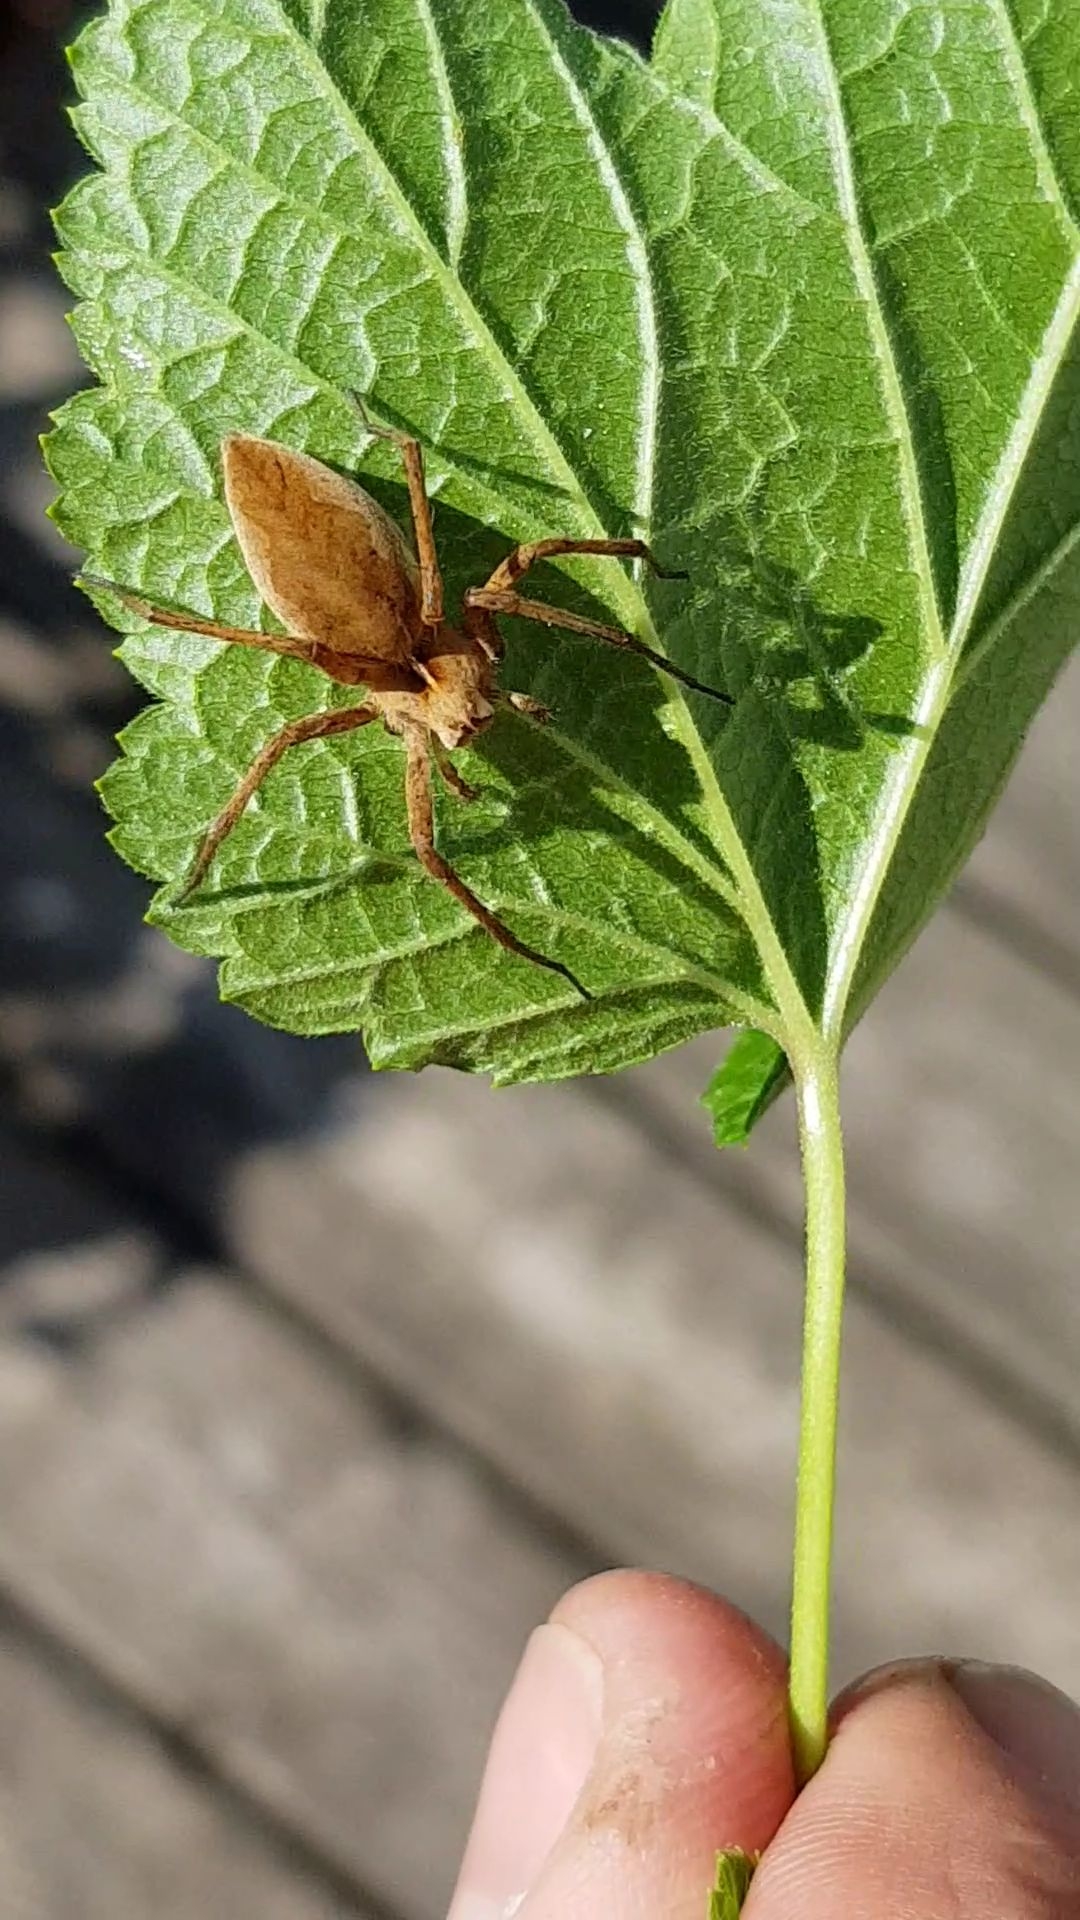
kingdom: Animalia
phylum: Arthropoda
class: Arachnida
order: Araneae
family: Pisauridae
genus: Pisaura
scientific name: Pisaura mirabilis
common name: Almindelig rovedderkop
